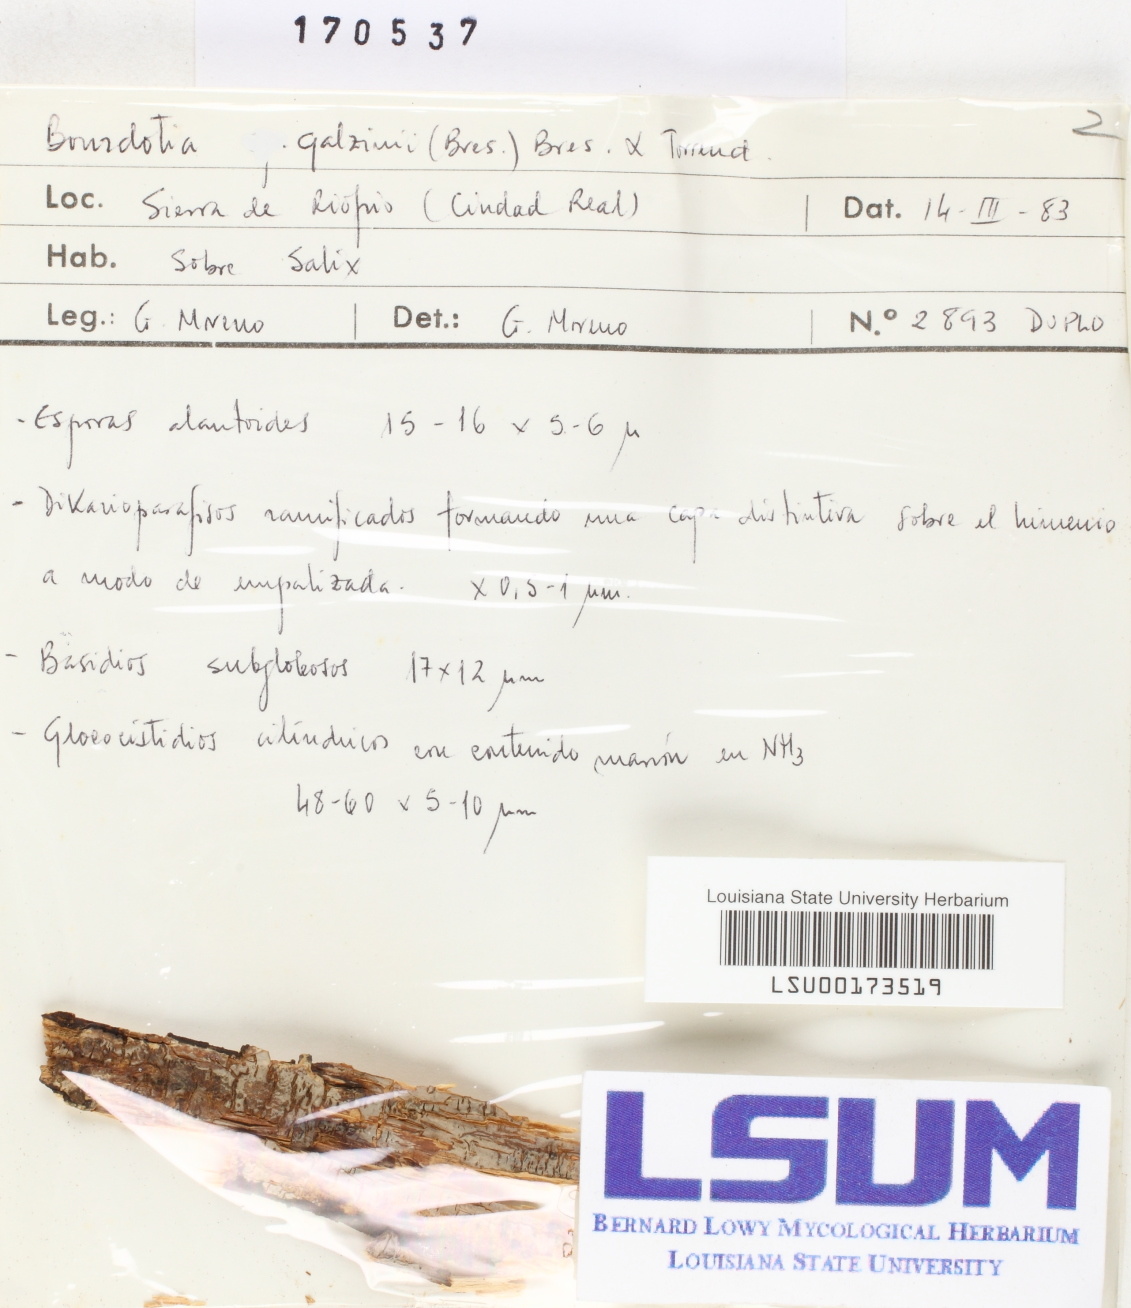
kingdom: Fungi
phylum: Basidiomycota
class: Agaricomycetes
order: Auriculariales
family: Auriculariaceae
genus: Exidiopsis
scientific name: Exidiopsis galzinii
